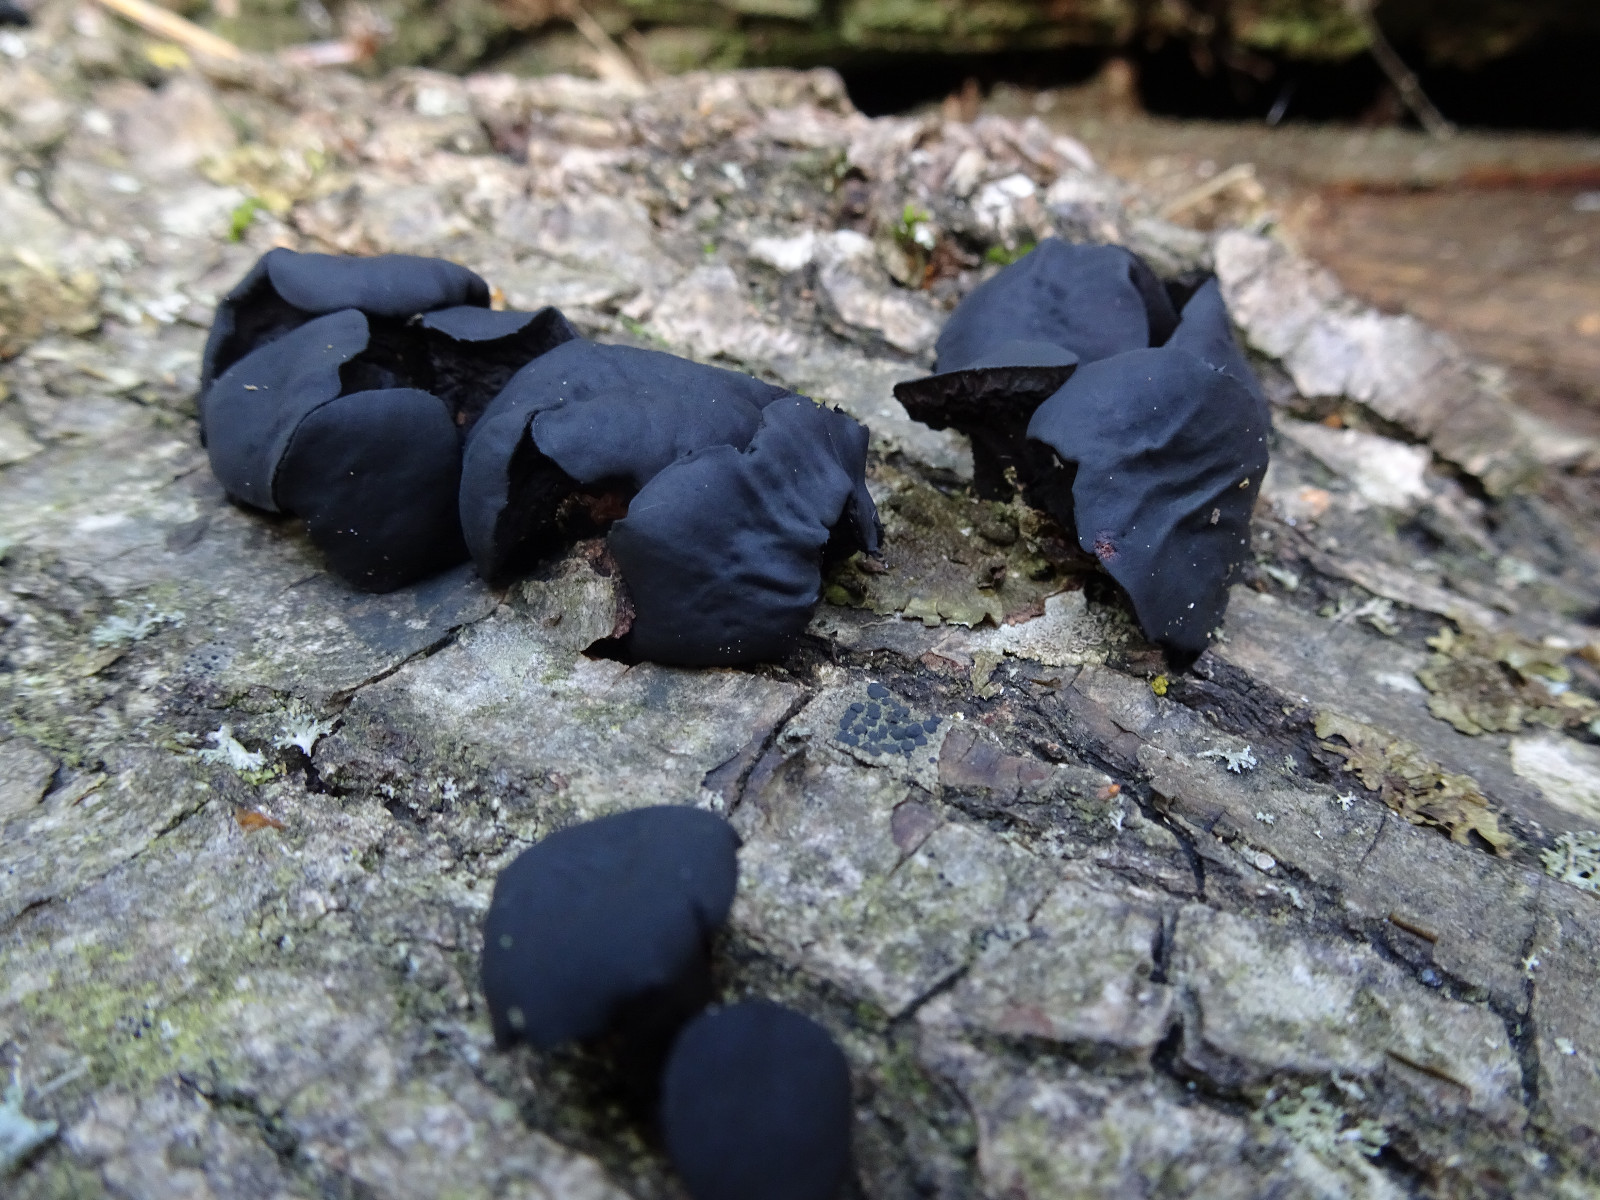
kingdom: Fungi
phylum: Ascomycota
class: Leotiomycetes
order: Phacidiales
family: Phacidiaceae
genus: Bulgaria
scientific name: Bulgaria inquinans
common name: afsmittende topsvamp
